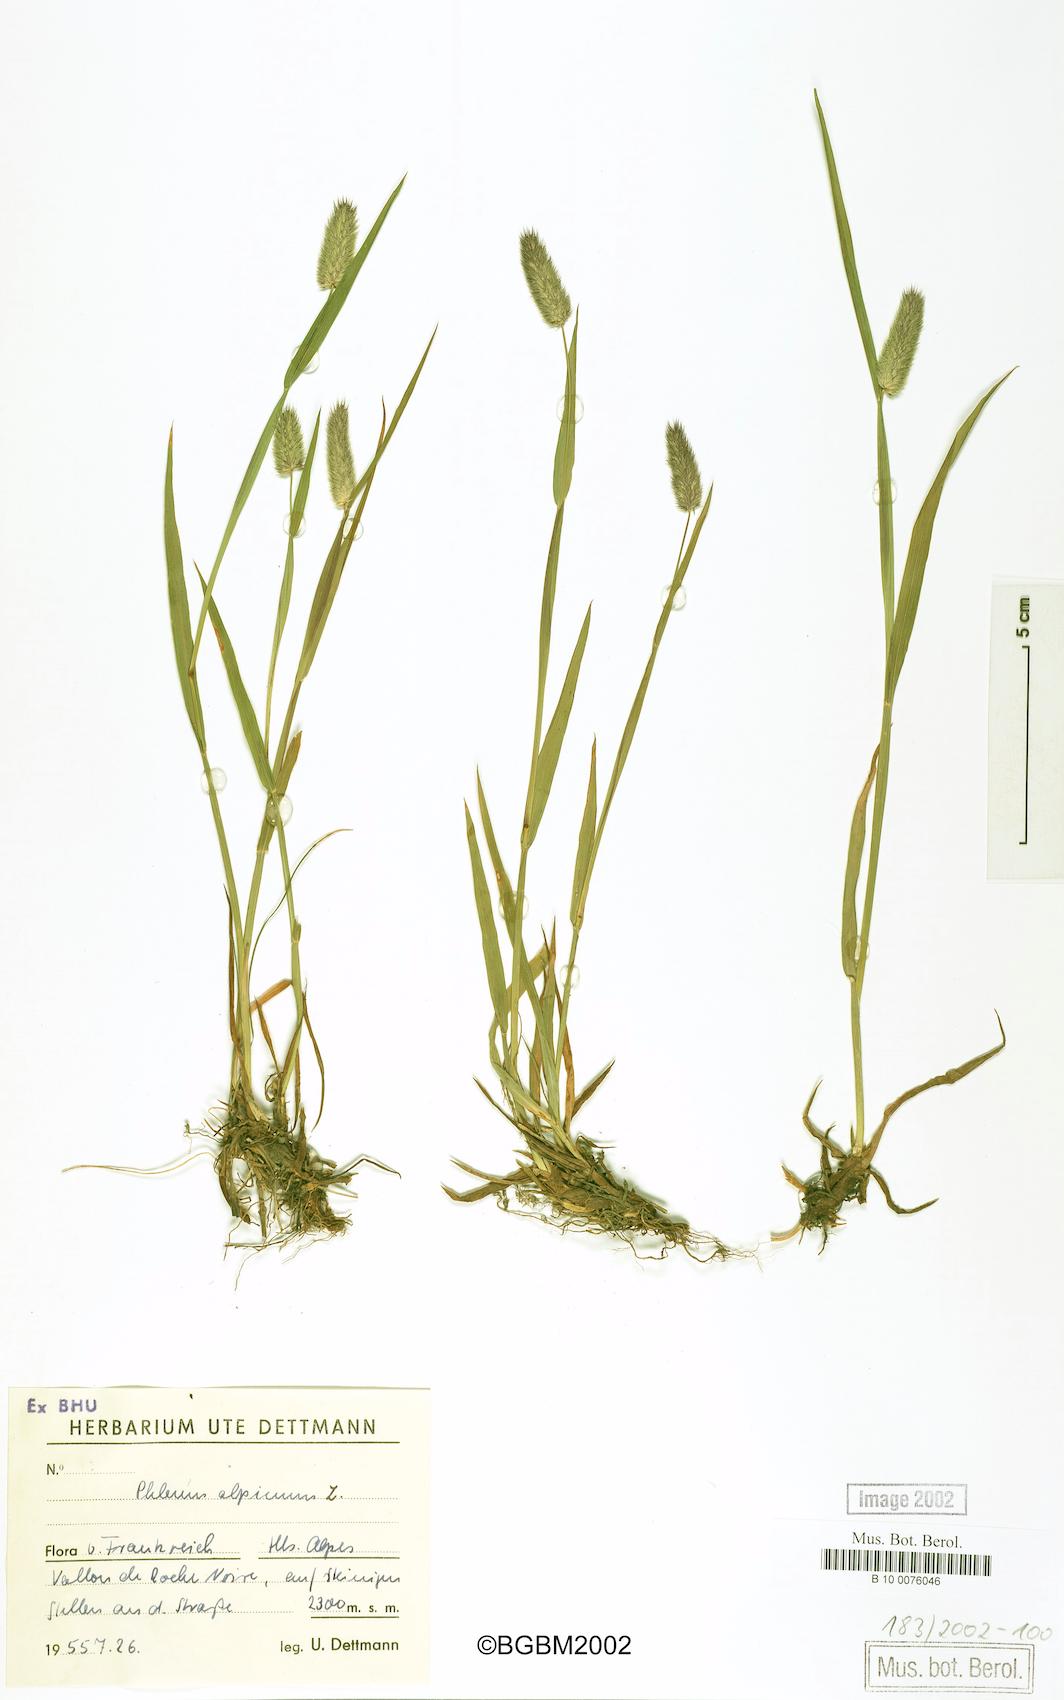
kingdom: Plantae
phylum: Tracheophyta
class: Liliopsida
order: Poales
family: Poaceae
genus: Phleum
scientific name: Phleum alpinum
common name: Alpine cat's-tail
